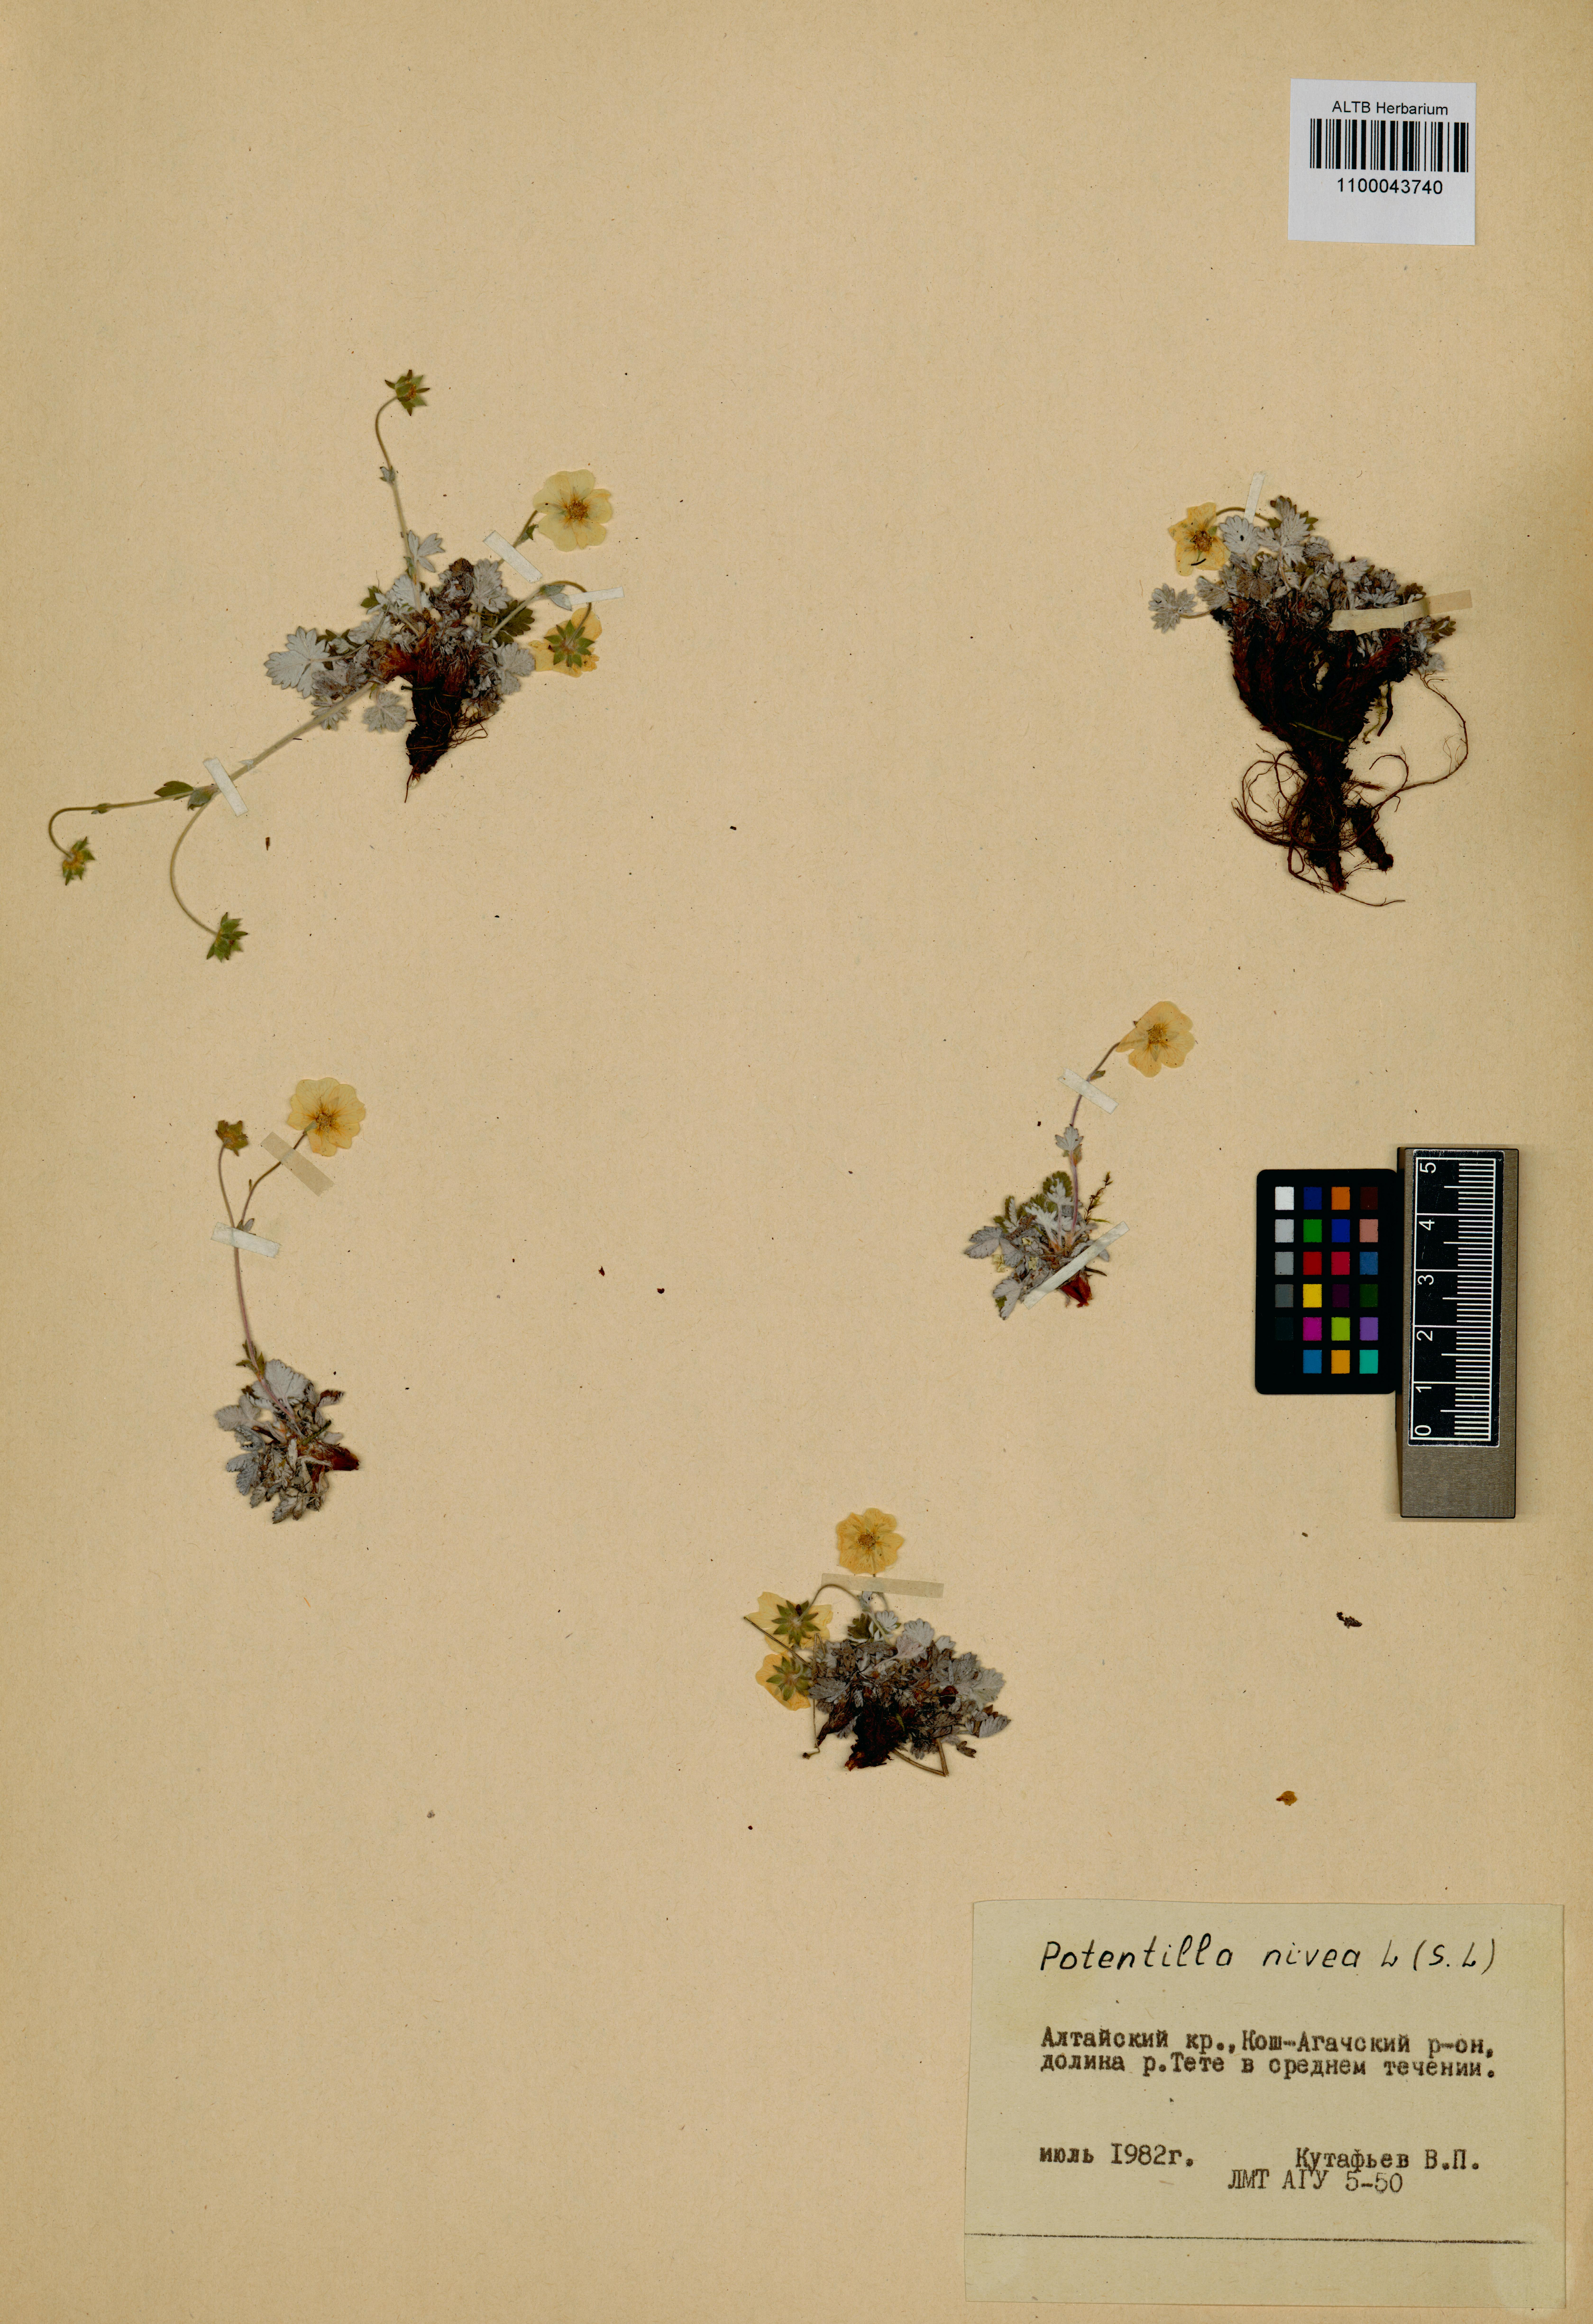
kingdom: Plantae
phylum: Tracheophyta
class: Magnoliopsida
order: Rosales
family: Rosaceae
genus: Potentilla
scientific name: Potentilla nivea
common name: Snow cinquefoil
